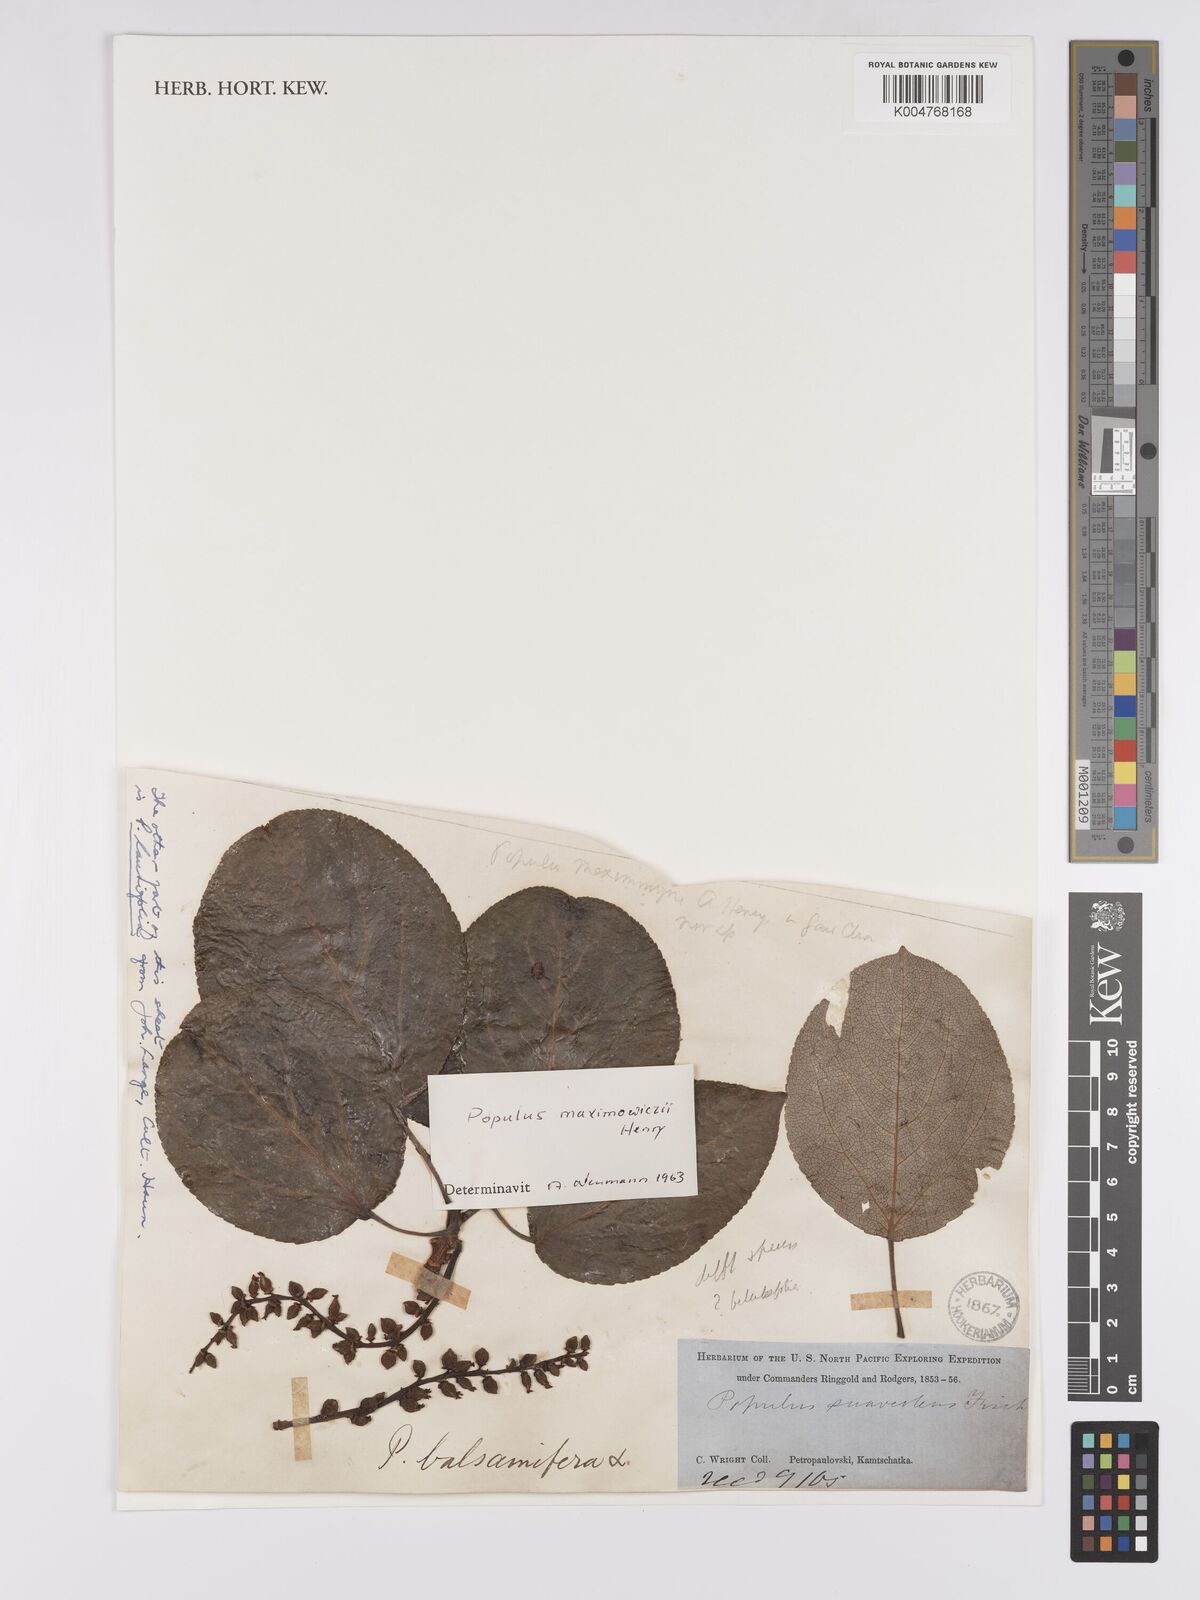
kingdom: Plantae
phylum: Tracheophyta
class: Magnoliopsida
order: Malpighiales
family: Salicaceae
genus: Populus
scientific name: Populus suaveolens
